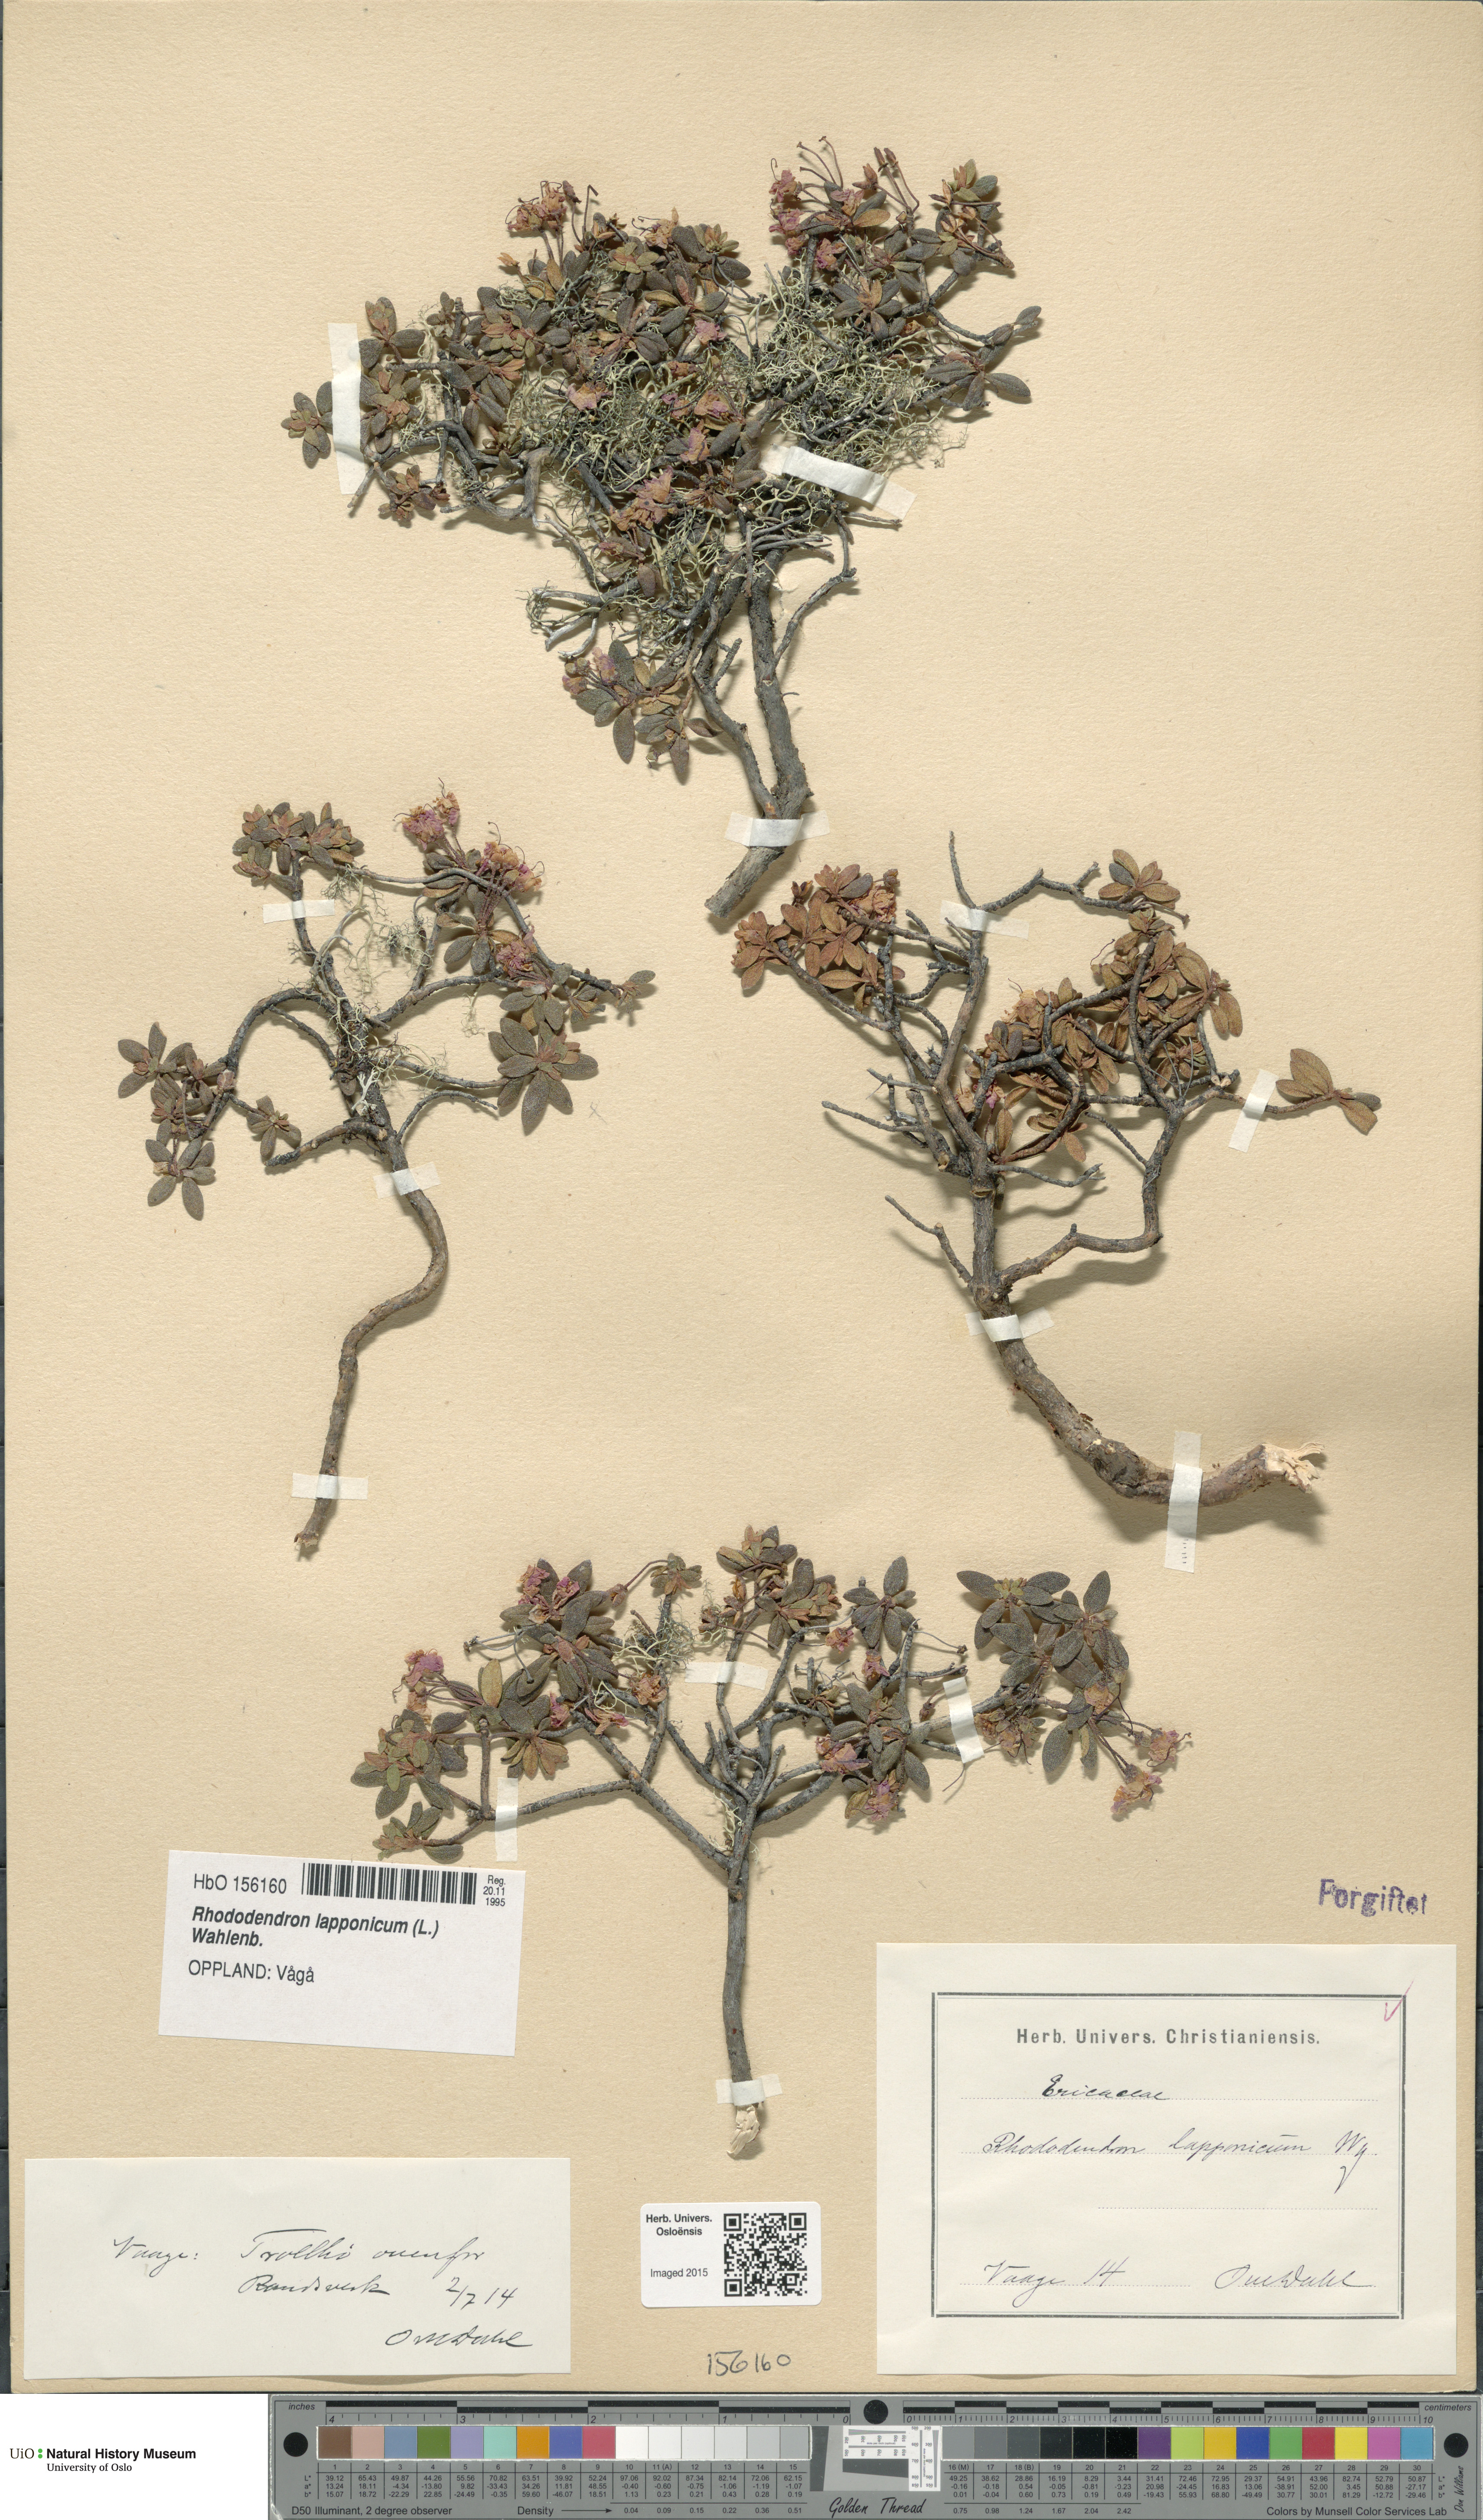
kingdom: Plantae
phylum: Tracheophyta
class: Magnoliopsida
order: Ericales
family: Ericaceae
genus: Rhododendron
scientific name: Rhododendron lapponicum
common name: Lapland rhododendron
